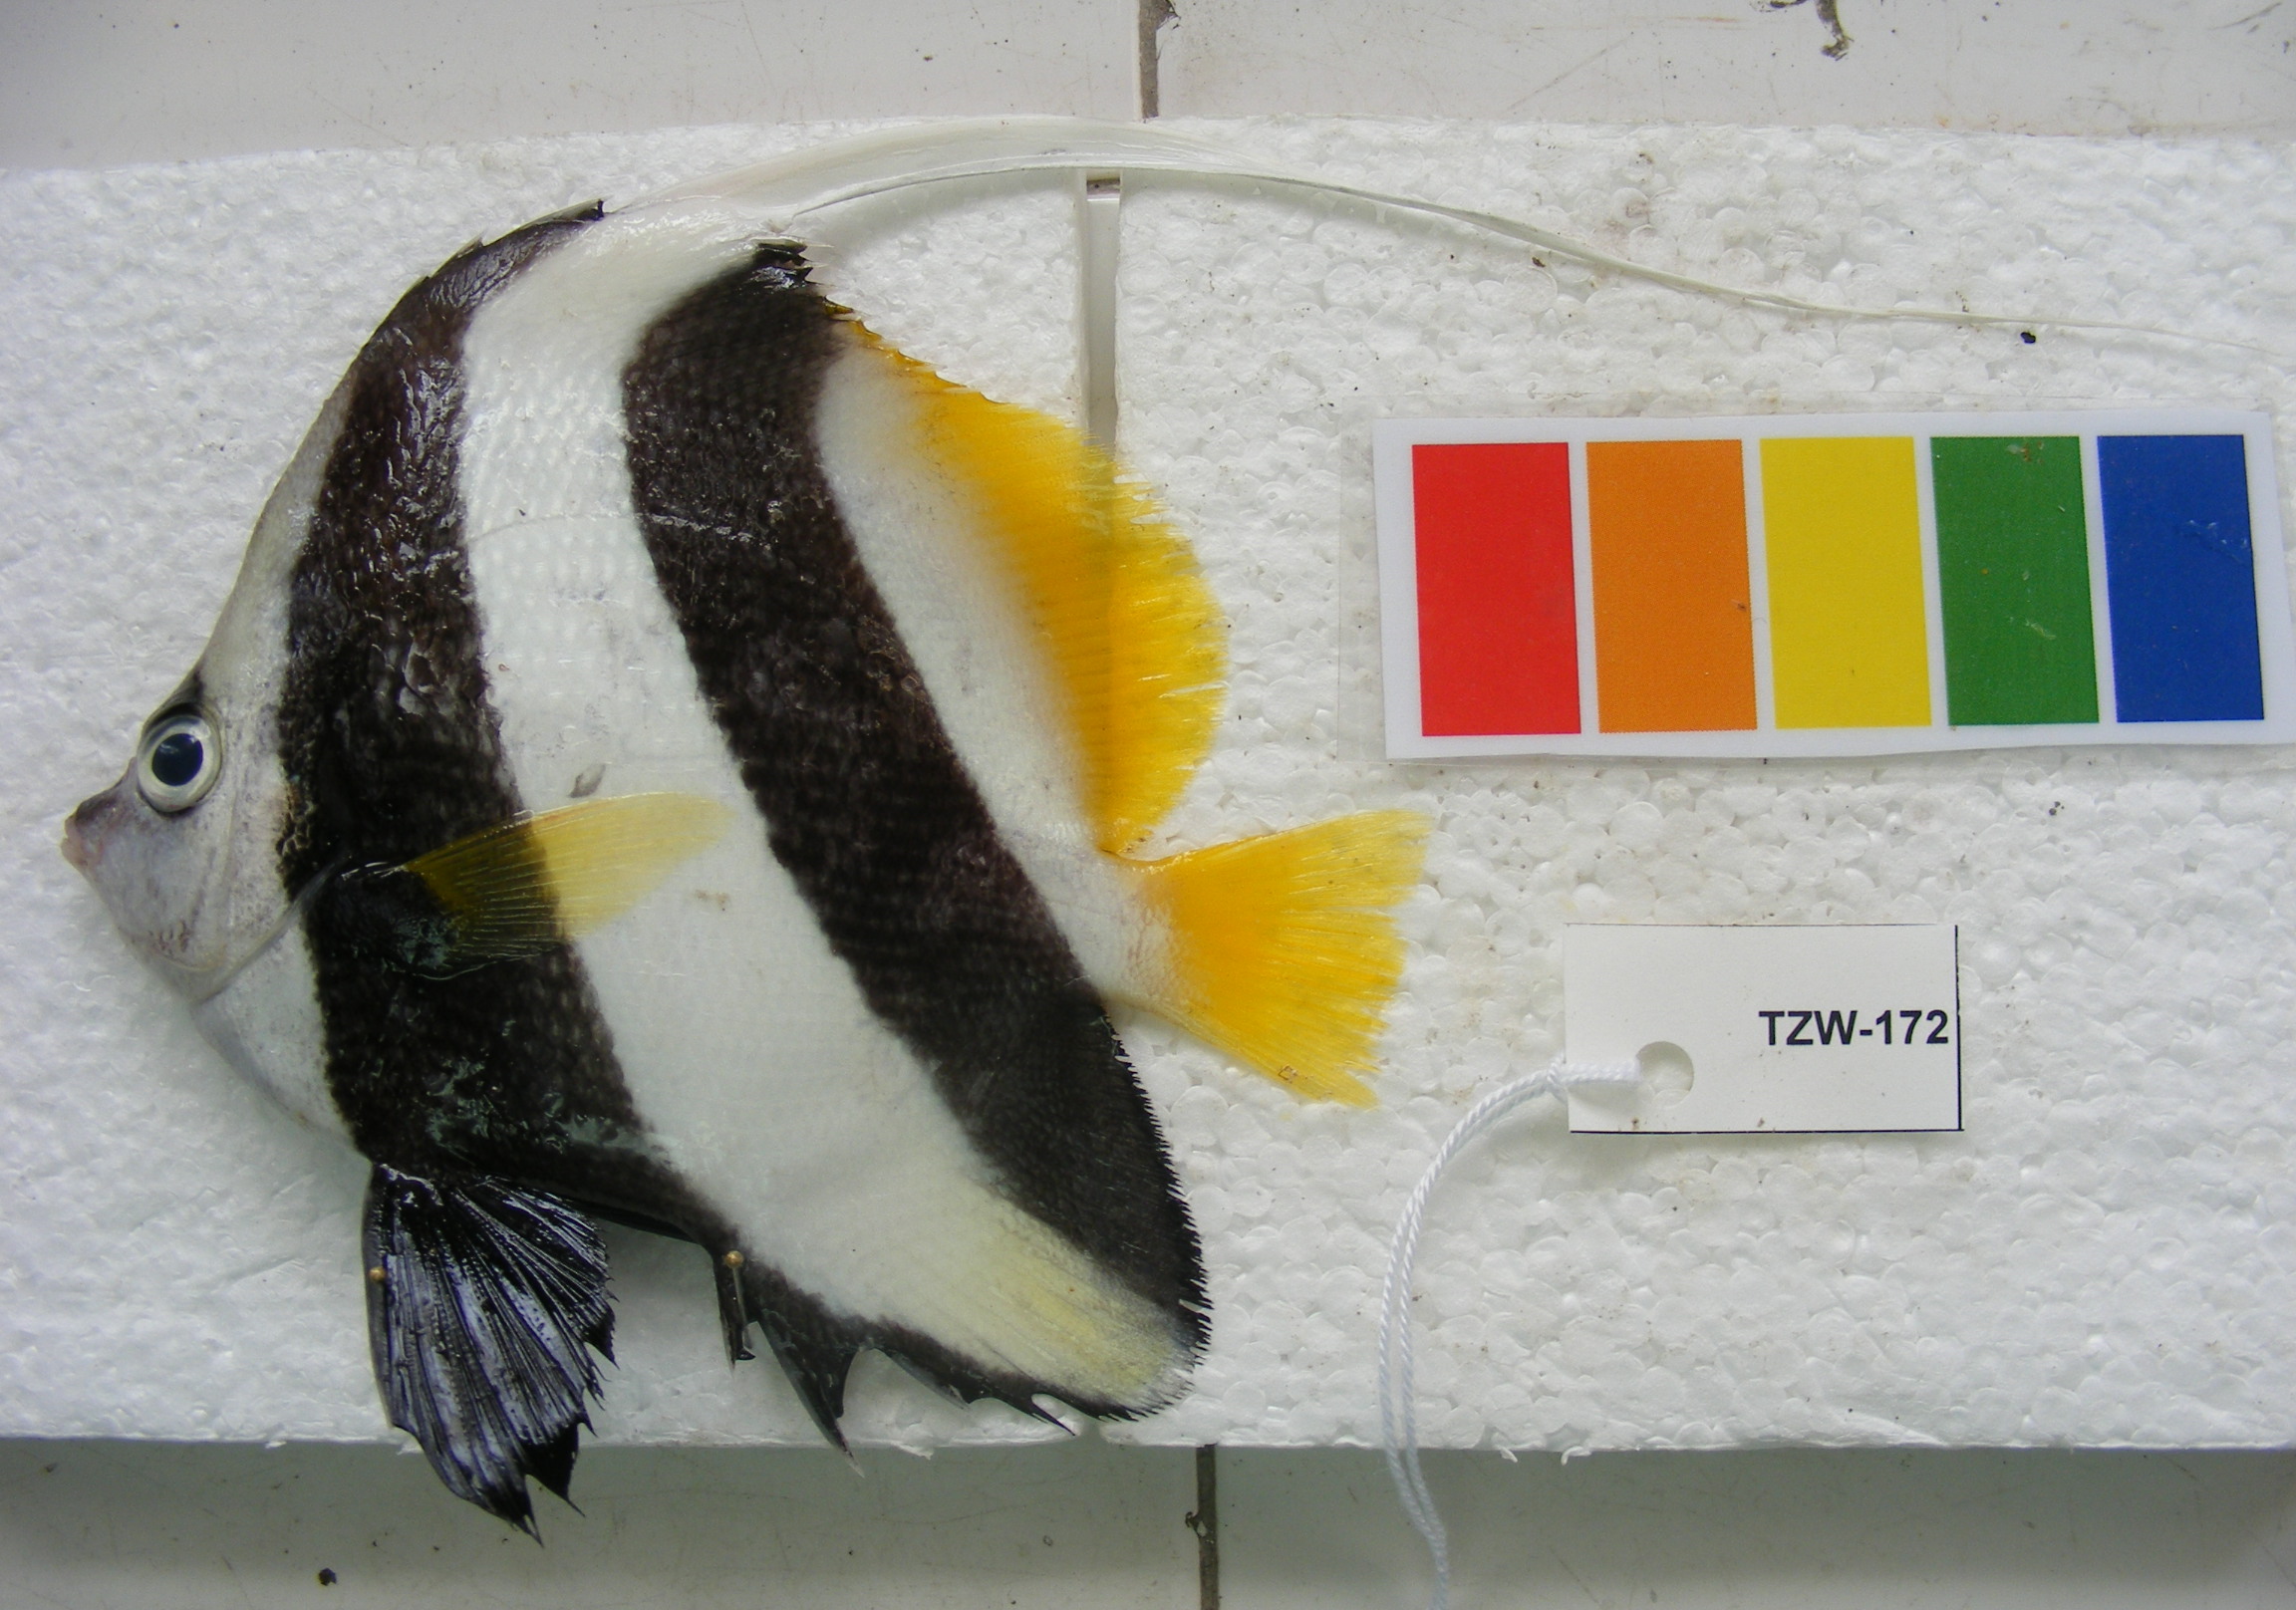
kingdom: Animalia
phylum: Chordata
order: Perciformes
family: Chaetodontidae
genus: Heniochus
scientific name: Heniochus acuminatus
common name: Pennant coralfish
